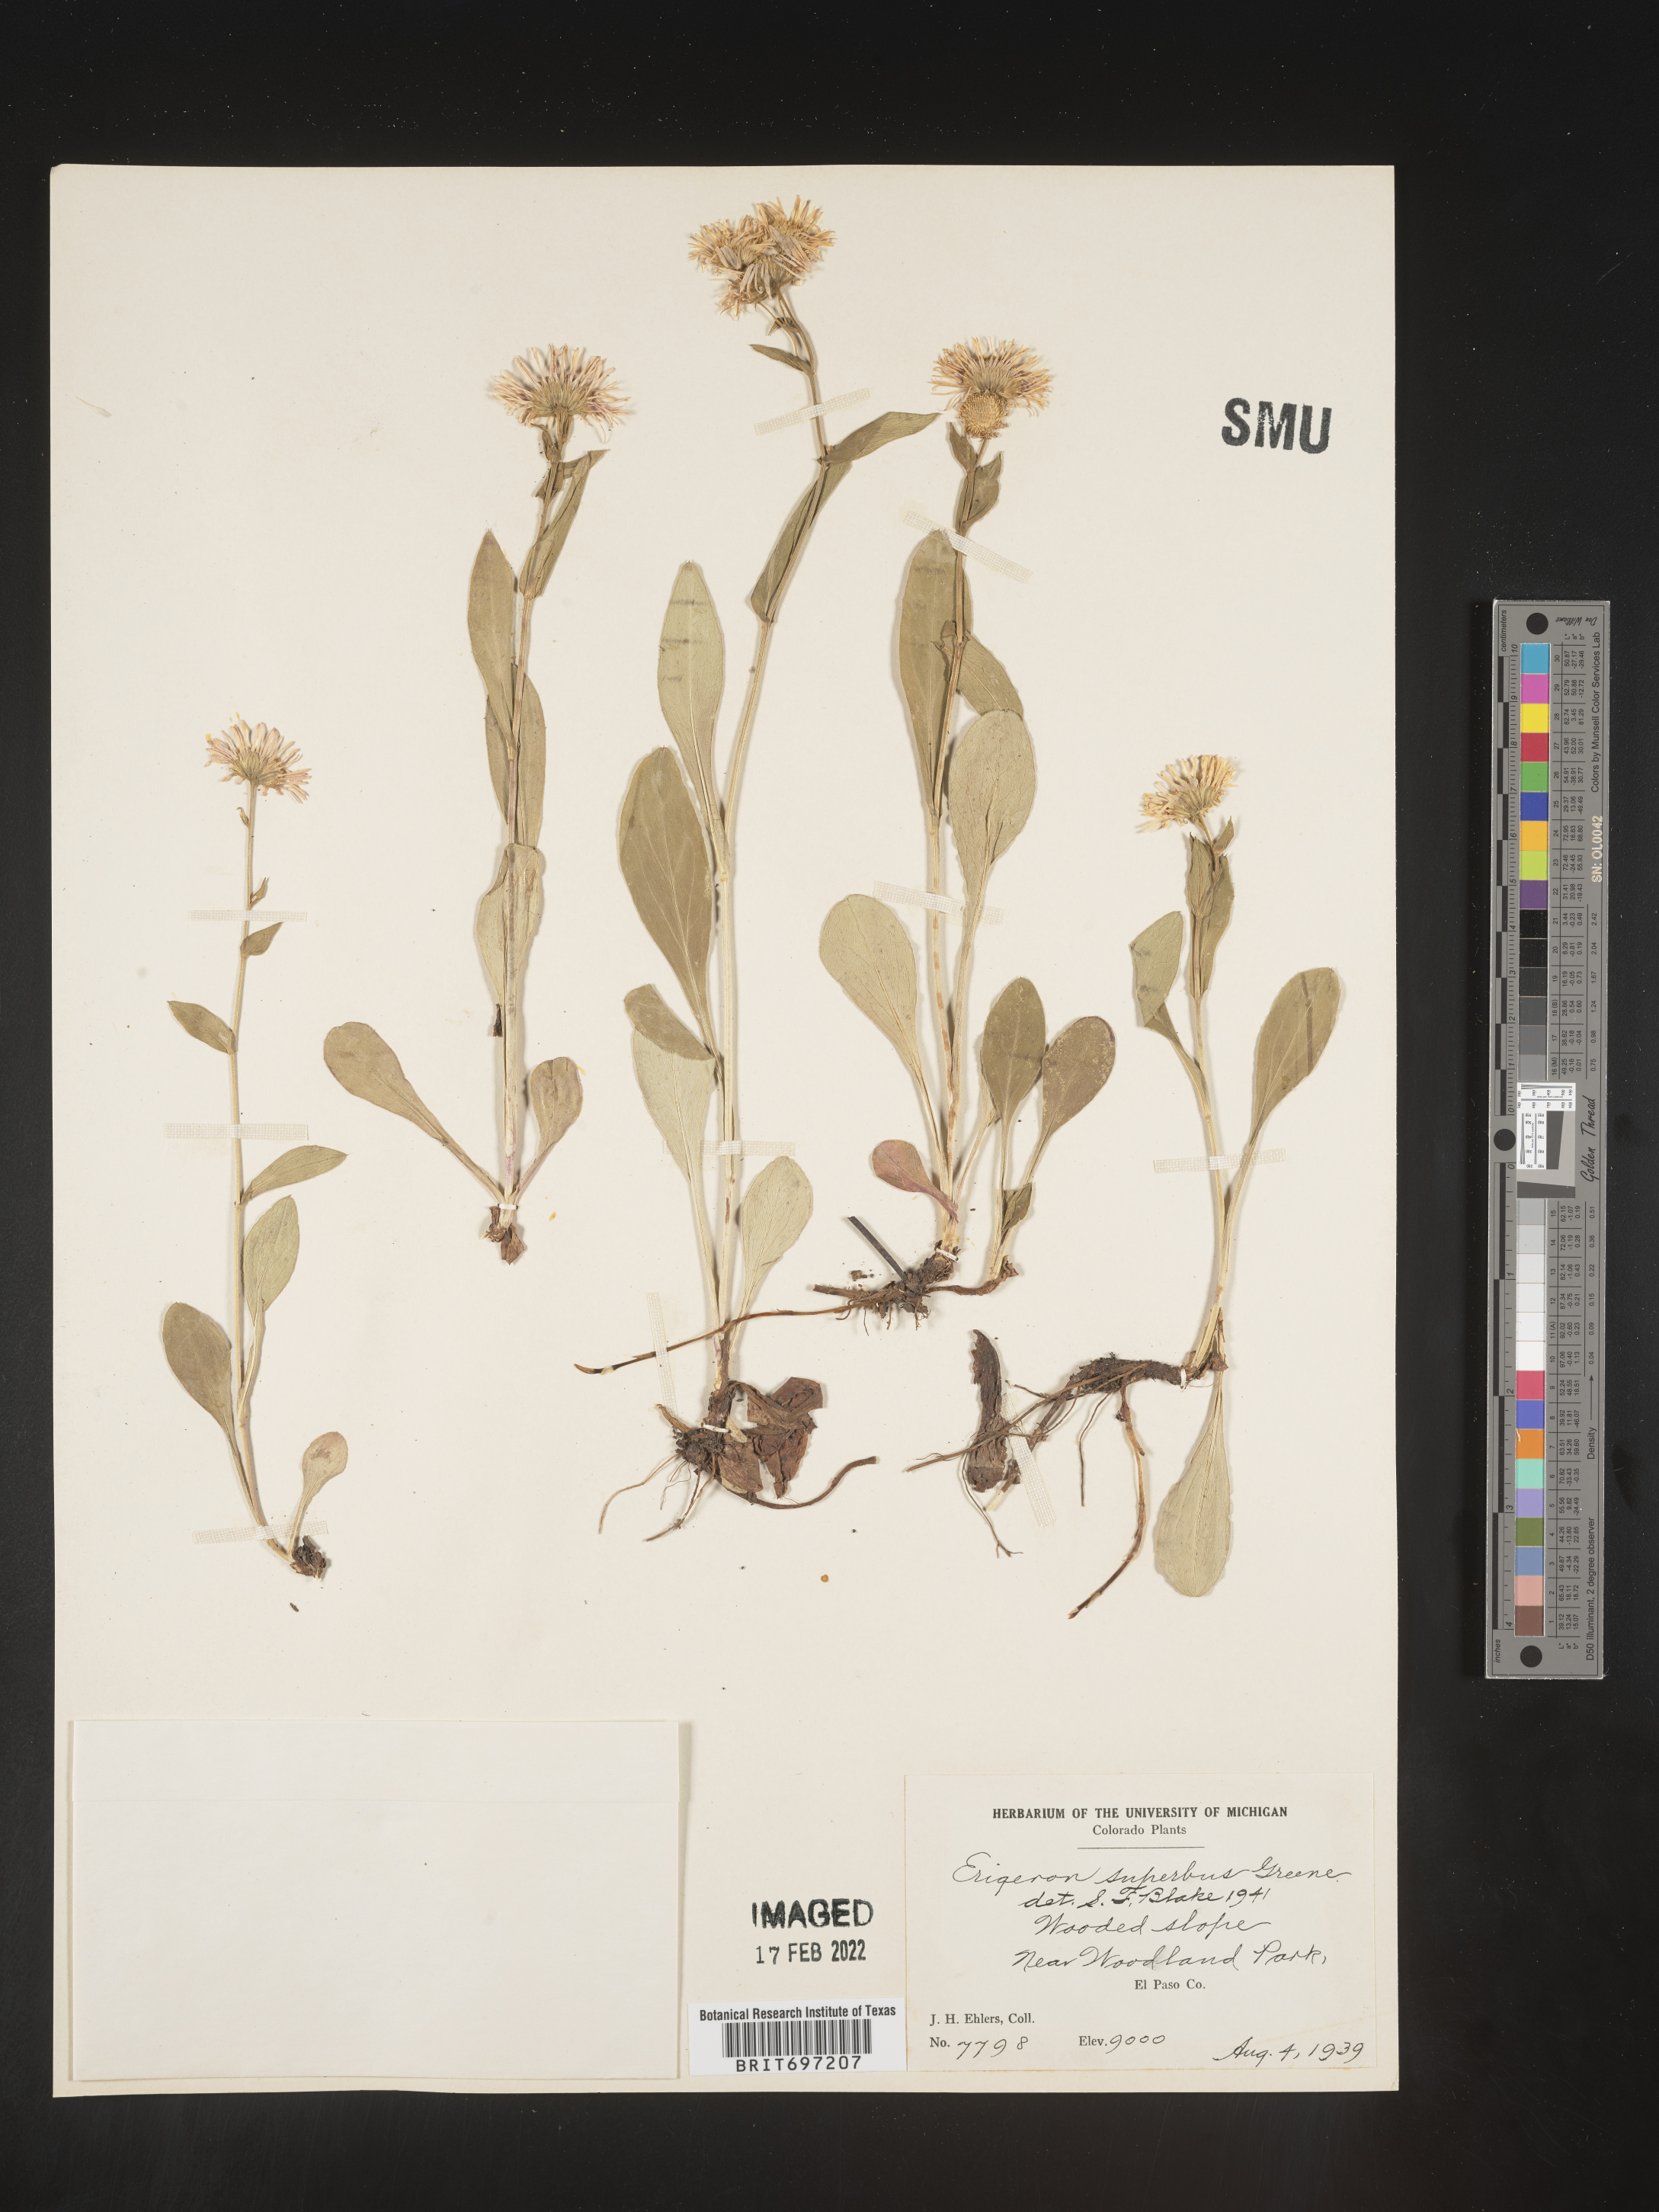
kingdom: Plantae
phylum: Tracheophyta
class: Magnoliopsida
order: Asterales
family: Asteraceae
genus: Erigeron
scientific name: Erigeron eximius
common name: Spruce-fir fleabane
